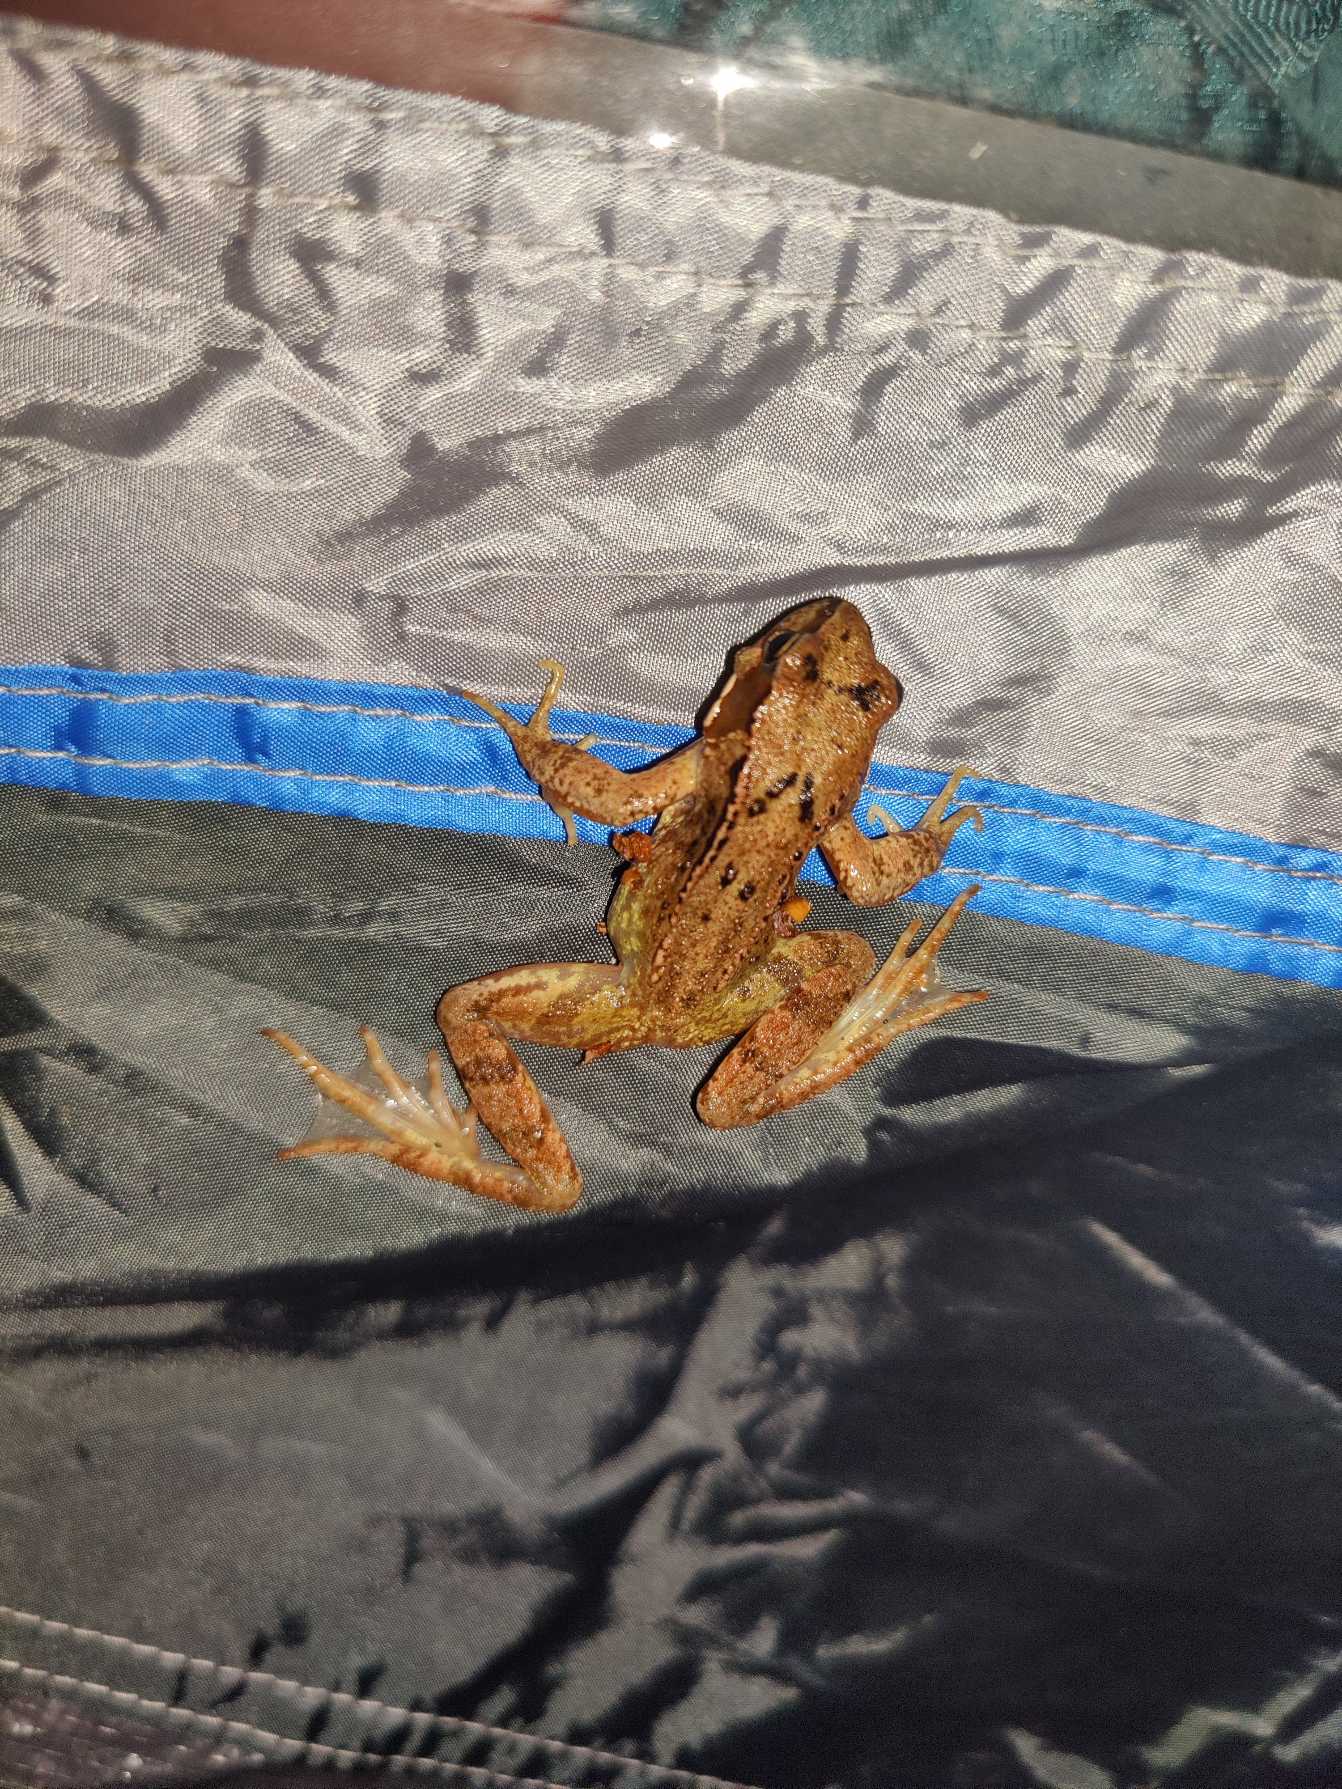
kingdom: Animalia
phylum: Chordata
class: Amphibia
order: Anura
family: Ranidae
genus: Rana
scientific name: Rana temporaria
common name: Butsnudet frø
